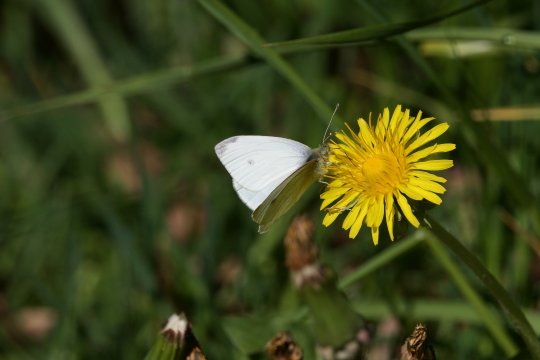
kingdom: Animalia
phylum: Arthropoda
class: Insecta
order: Lepidoptera
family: Pieridae
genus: Pieris
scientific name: Pieris rapae
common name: Cabbage White
